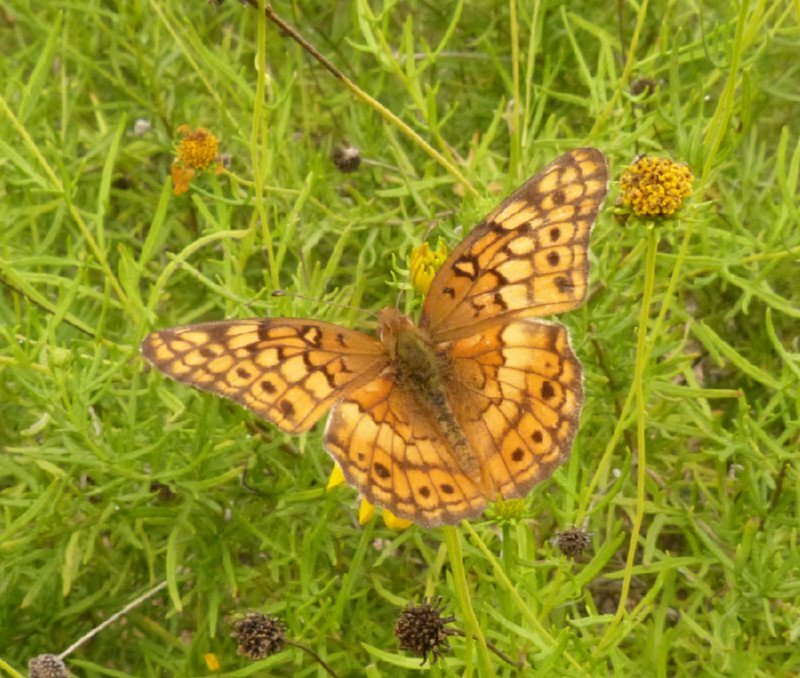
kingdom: Animalia
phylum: Arthropoda
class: Insecta
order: Lepidoptera
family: Nymphalidae
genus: Euptoieta
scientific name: Euptoieta claudia
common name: Variegated Fritillary
